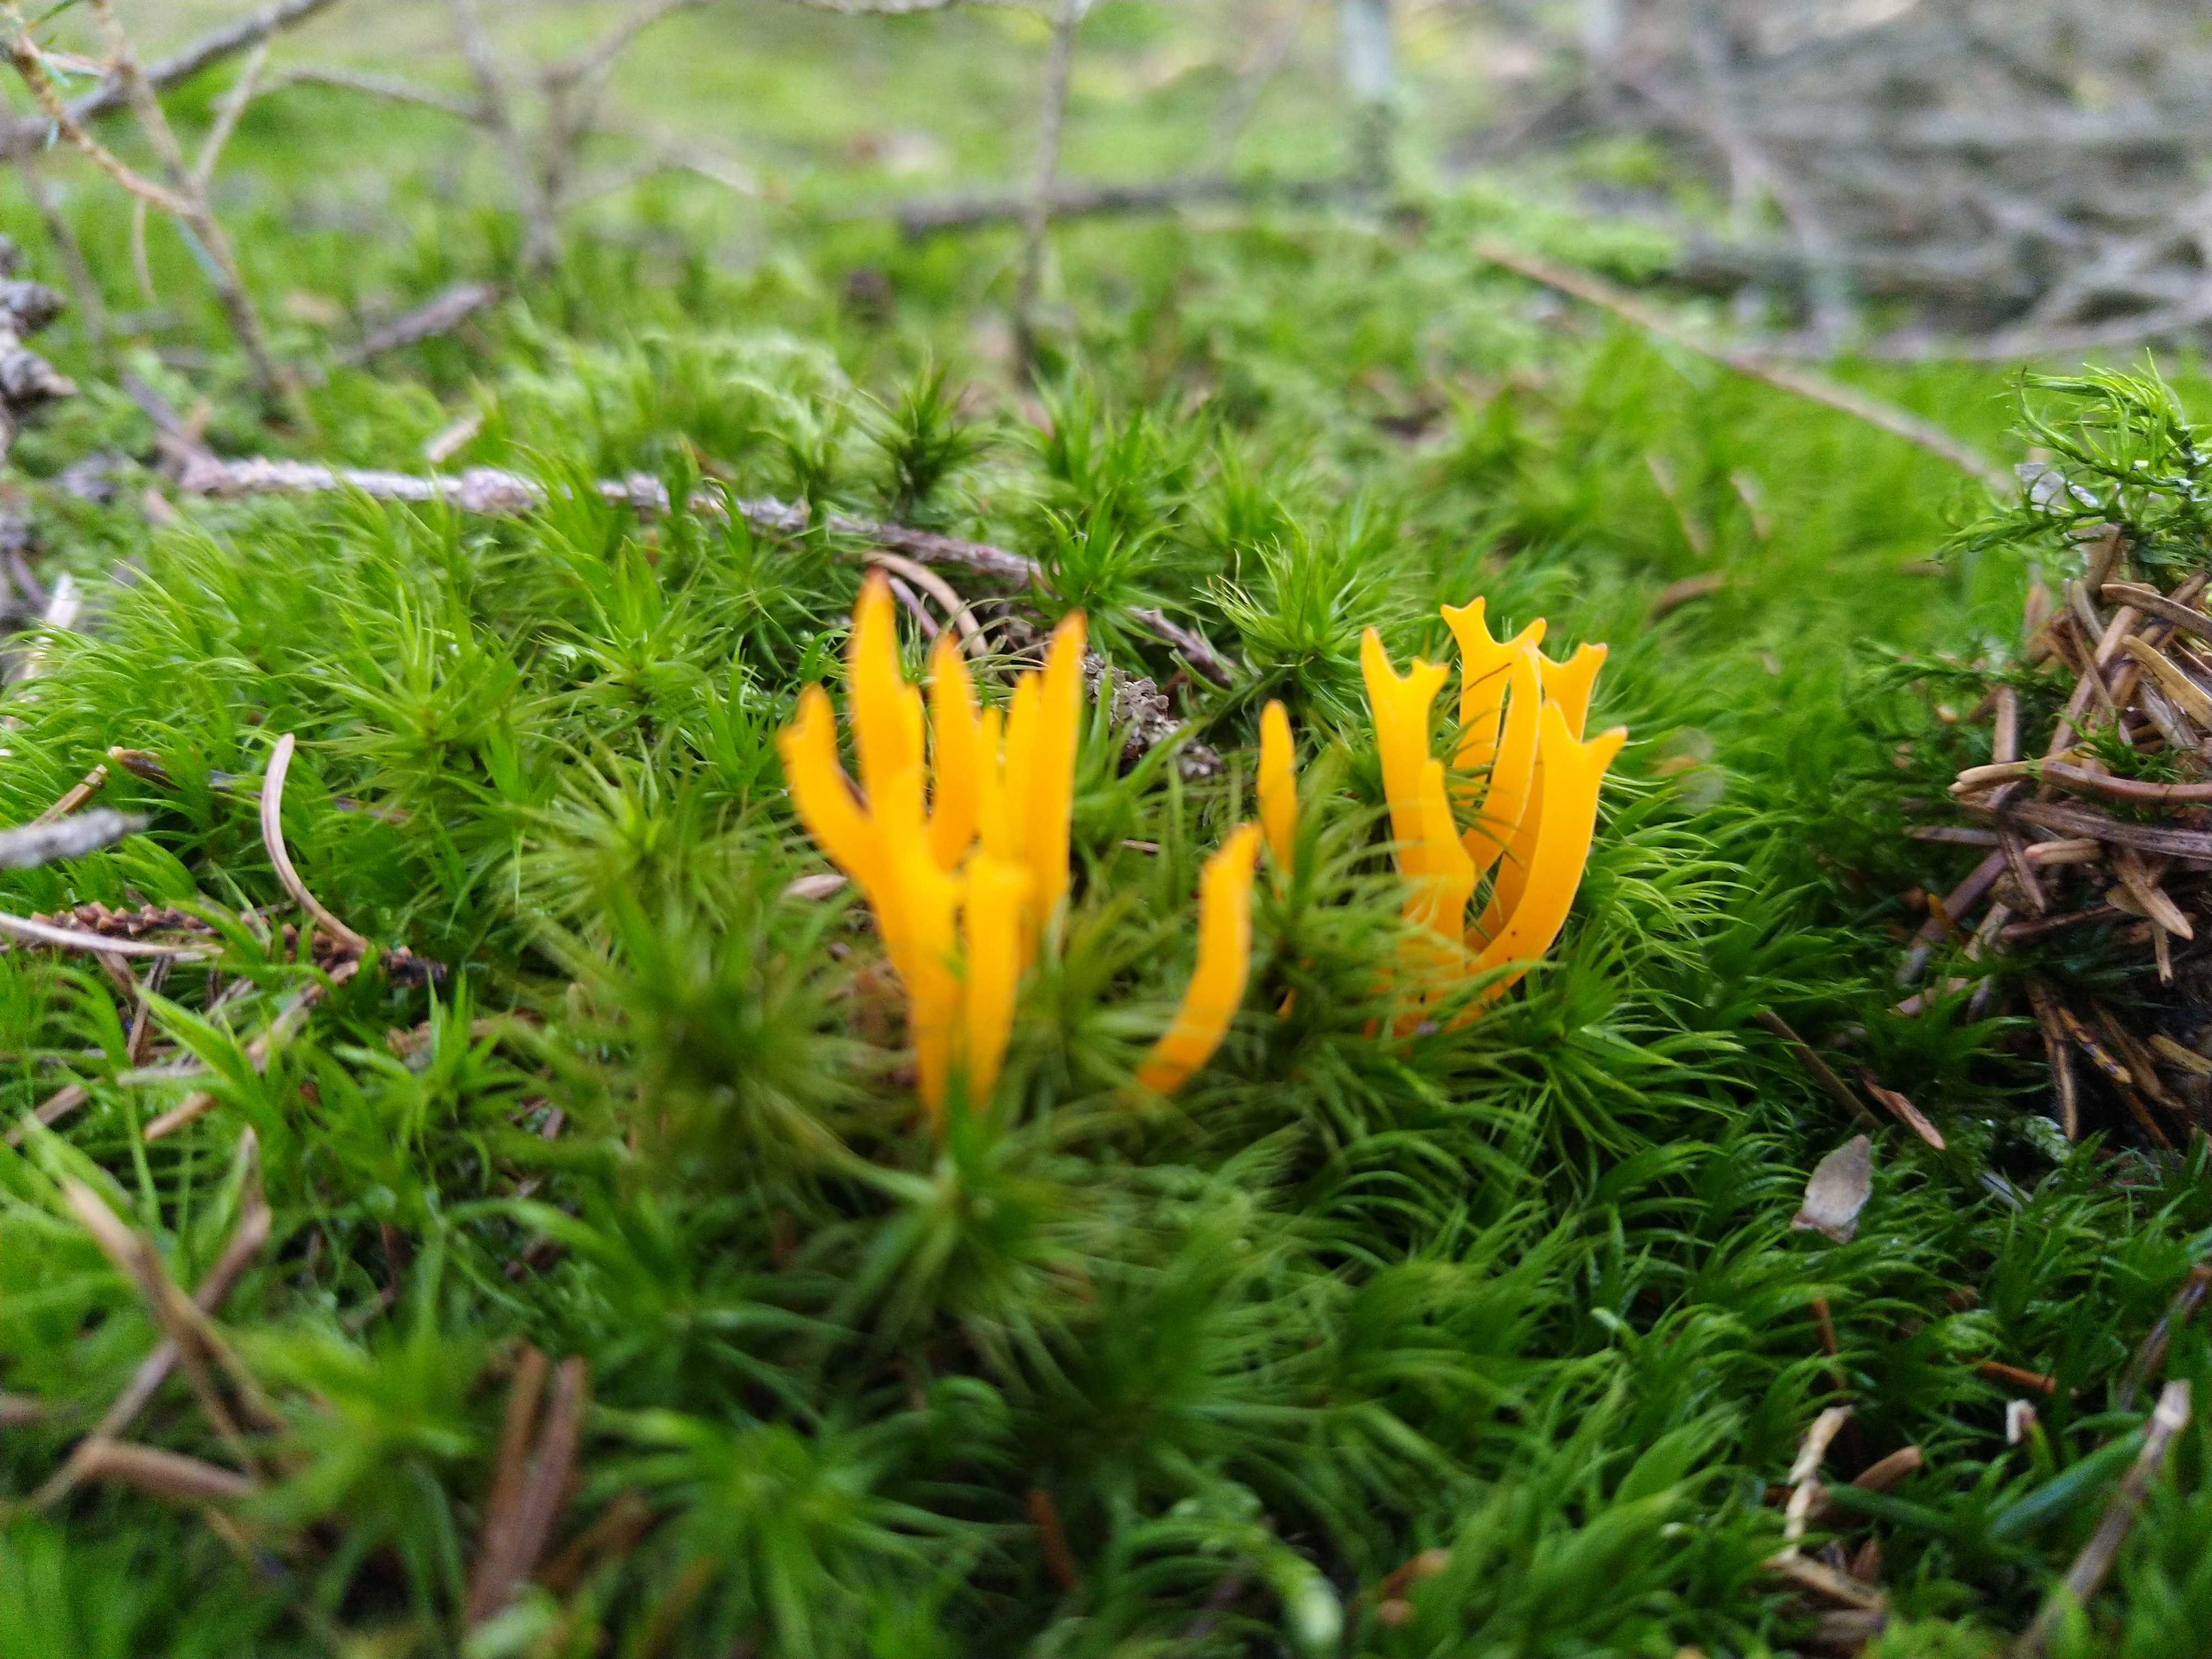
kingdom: Fungi
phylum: Basidiomycota
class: Dacrymycetes
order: Dacrymycetales
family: Dacrymycetaceae
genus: Calocera
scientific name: Calocera viscosa
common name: almindelig guldgaffel
